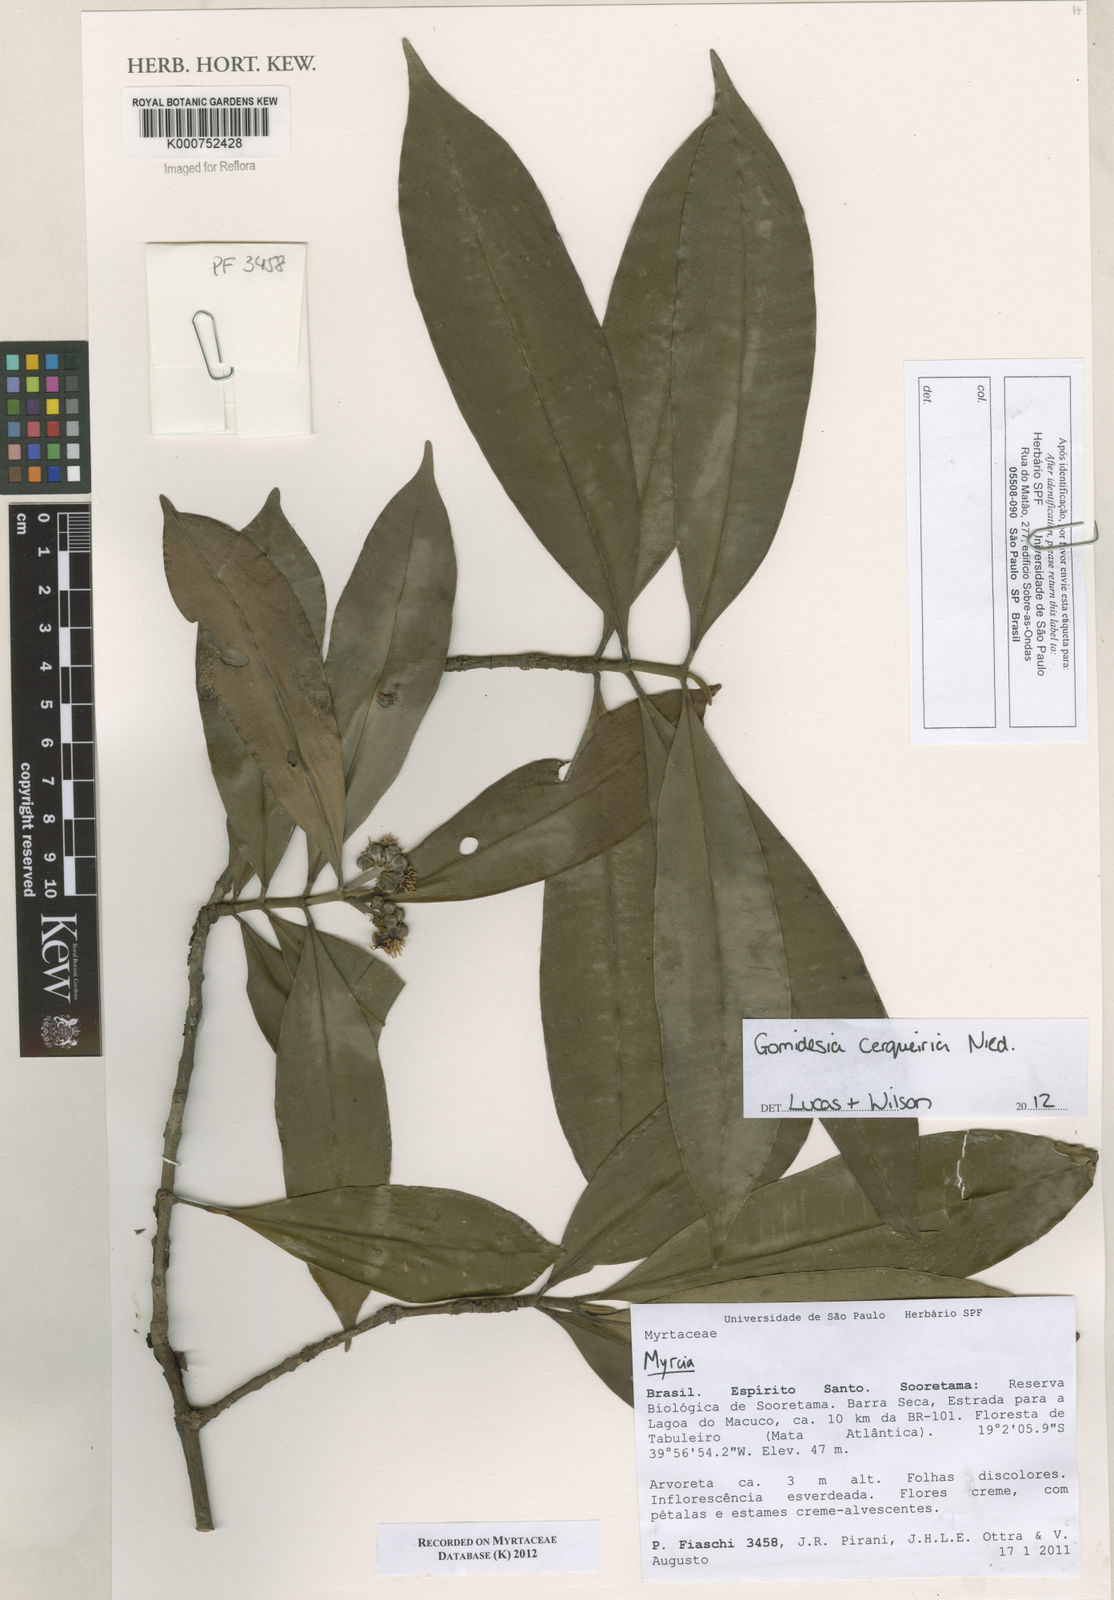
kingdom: Plantae
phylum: Tracheophyta
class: Magnoliopsida
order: Myrtales
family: Myrtaceae
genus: Myrcia
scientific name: Myrcia cerqueiria
